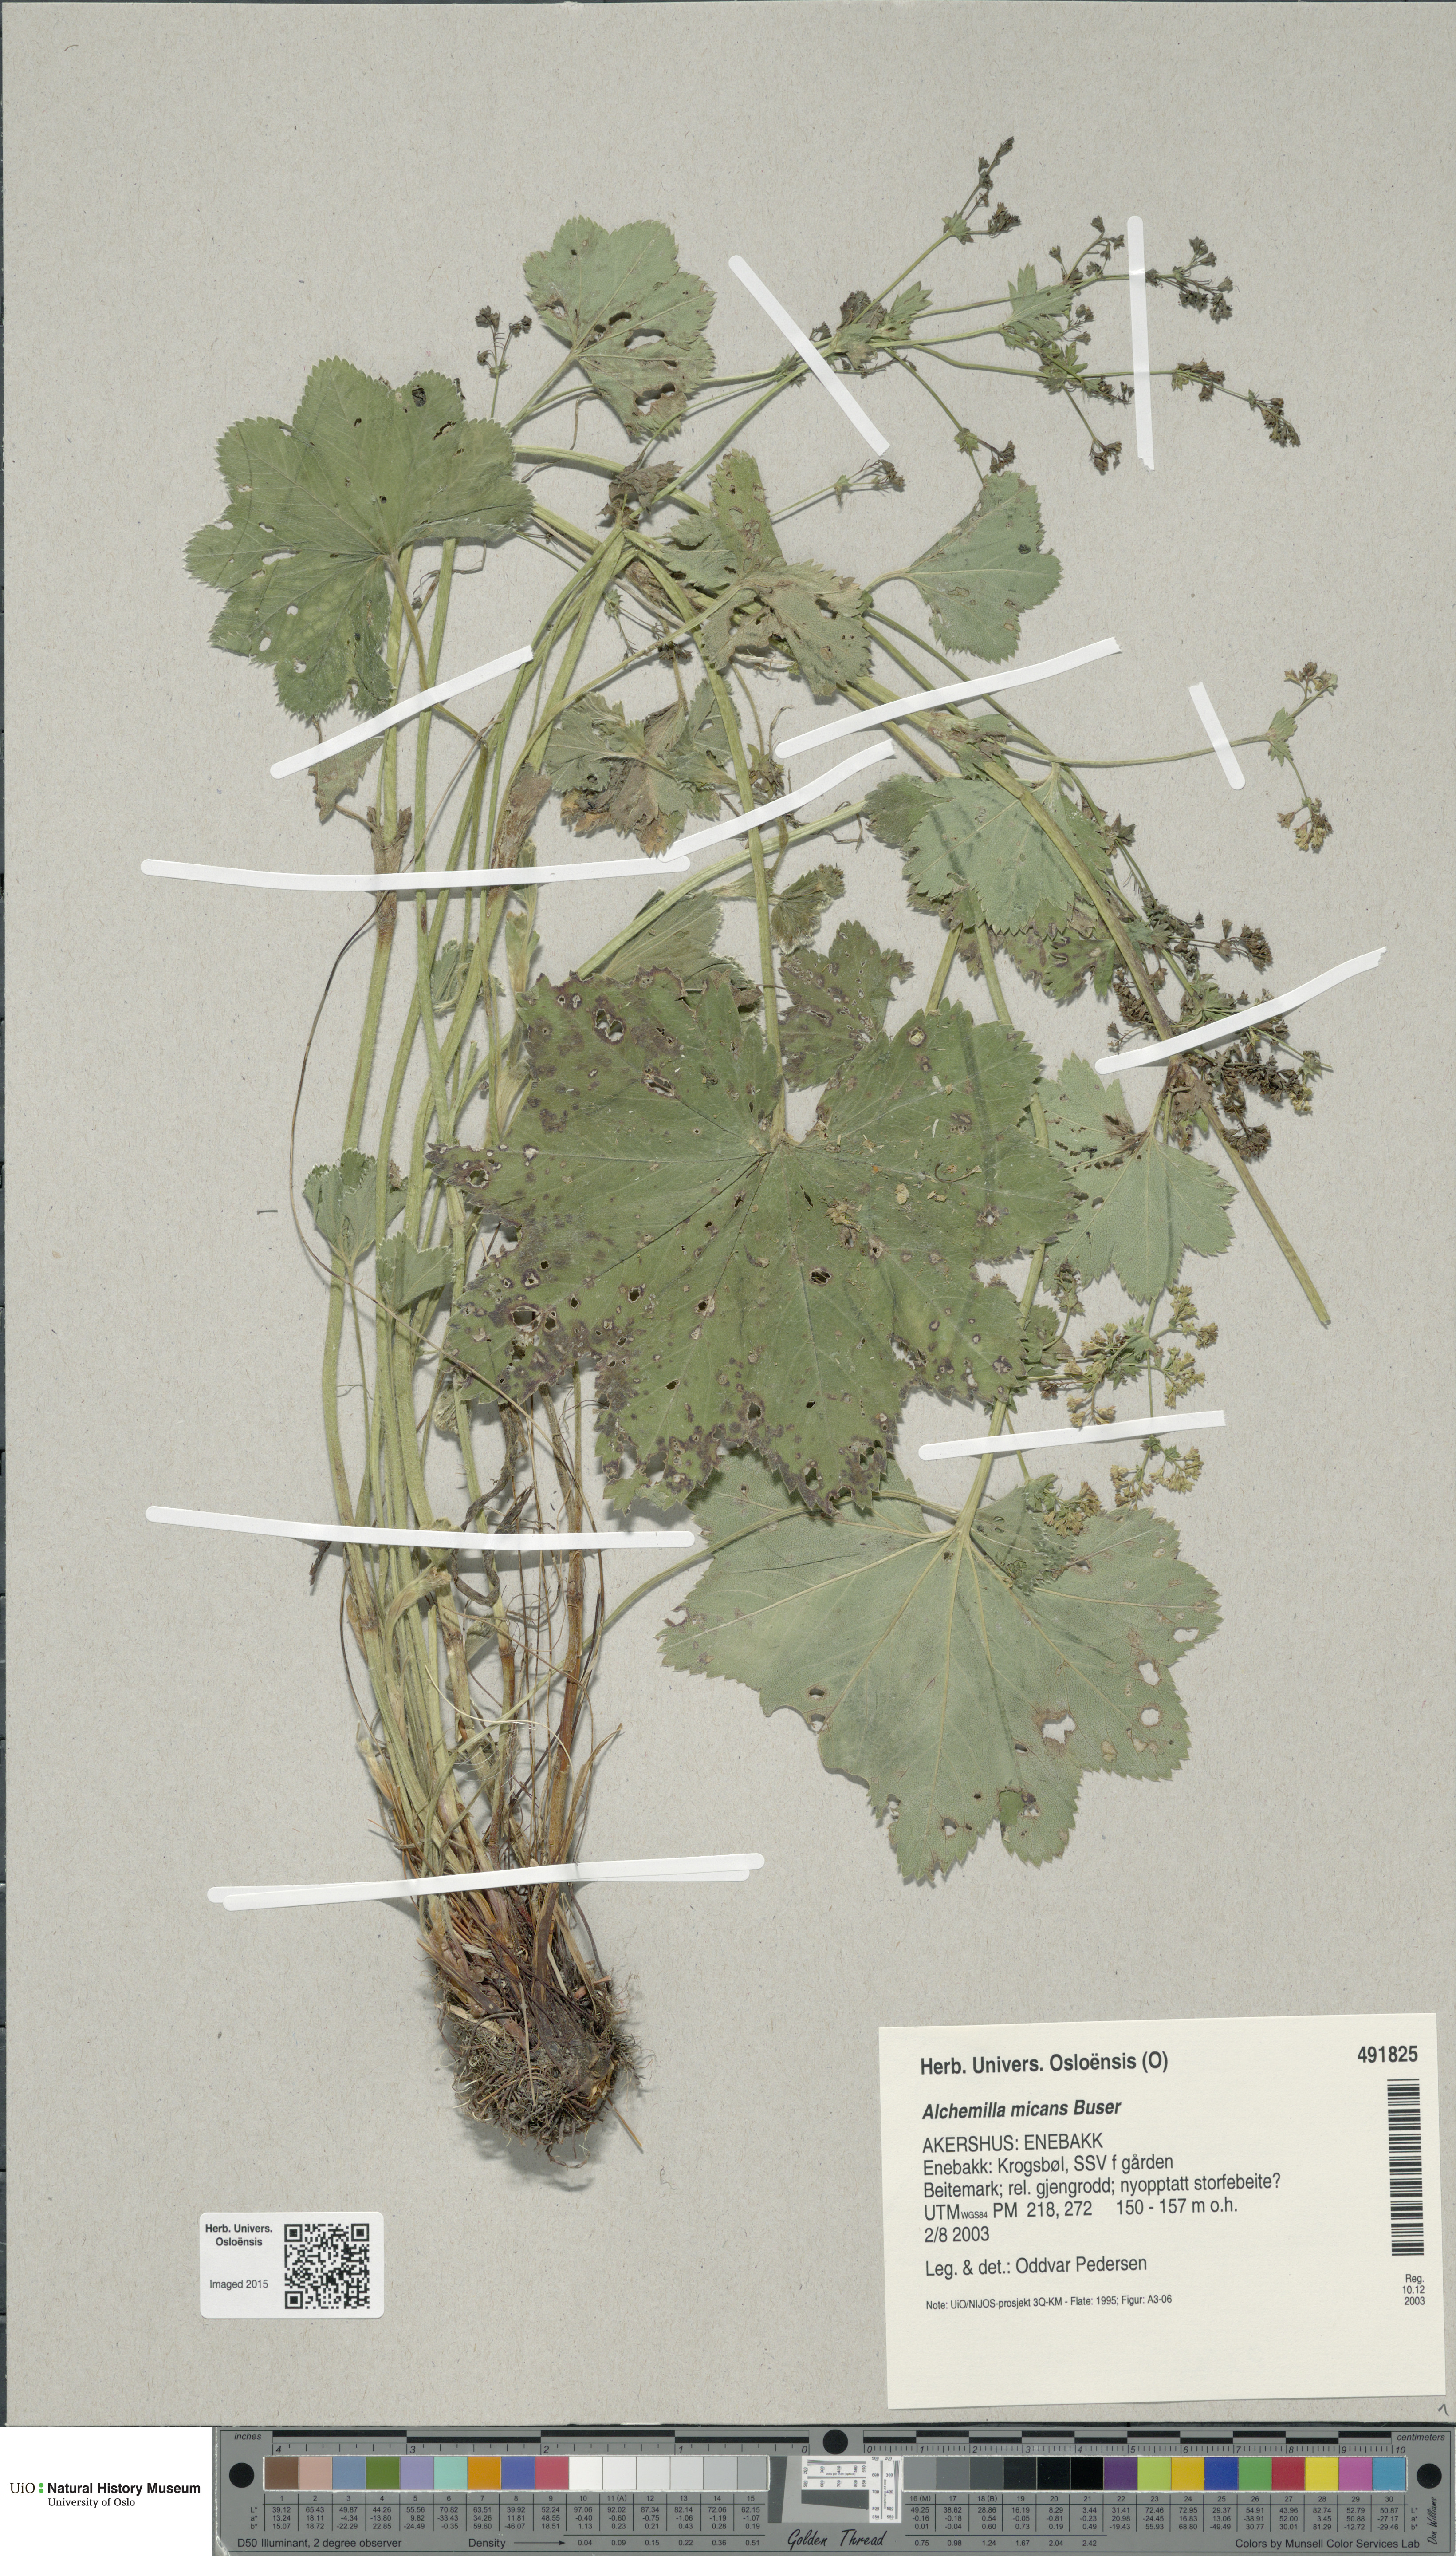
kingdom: Plantae
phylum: Tracheophyta
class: Magnoliopsida
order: Rosales
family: Rosaceae
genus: Alchemilla
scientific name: Alchemilla micans
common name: Gleaming lady's mantle
